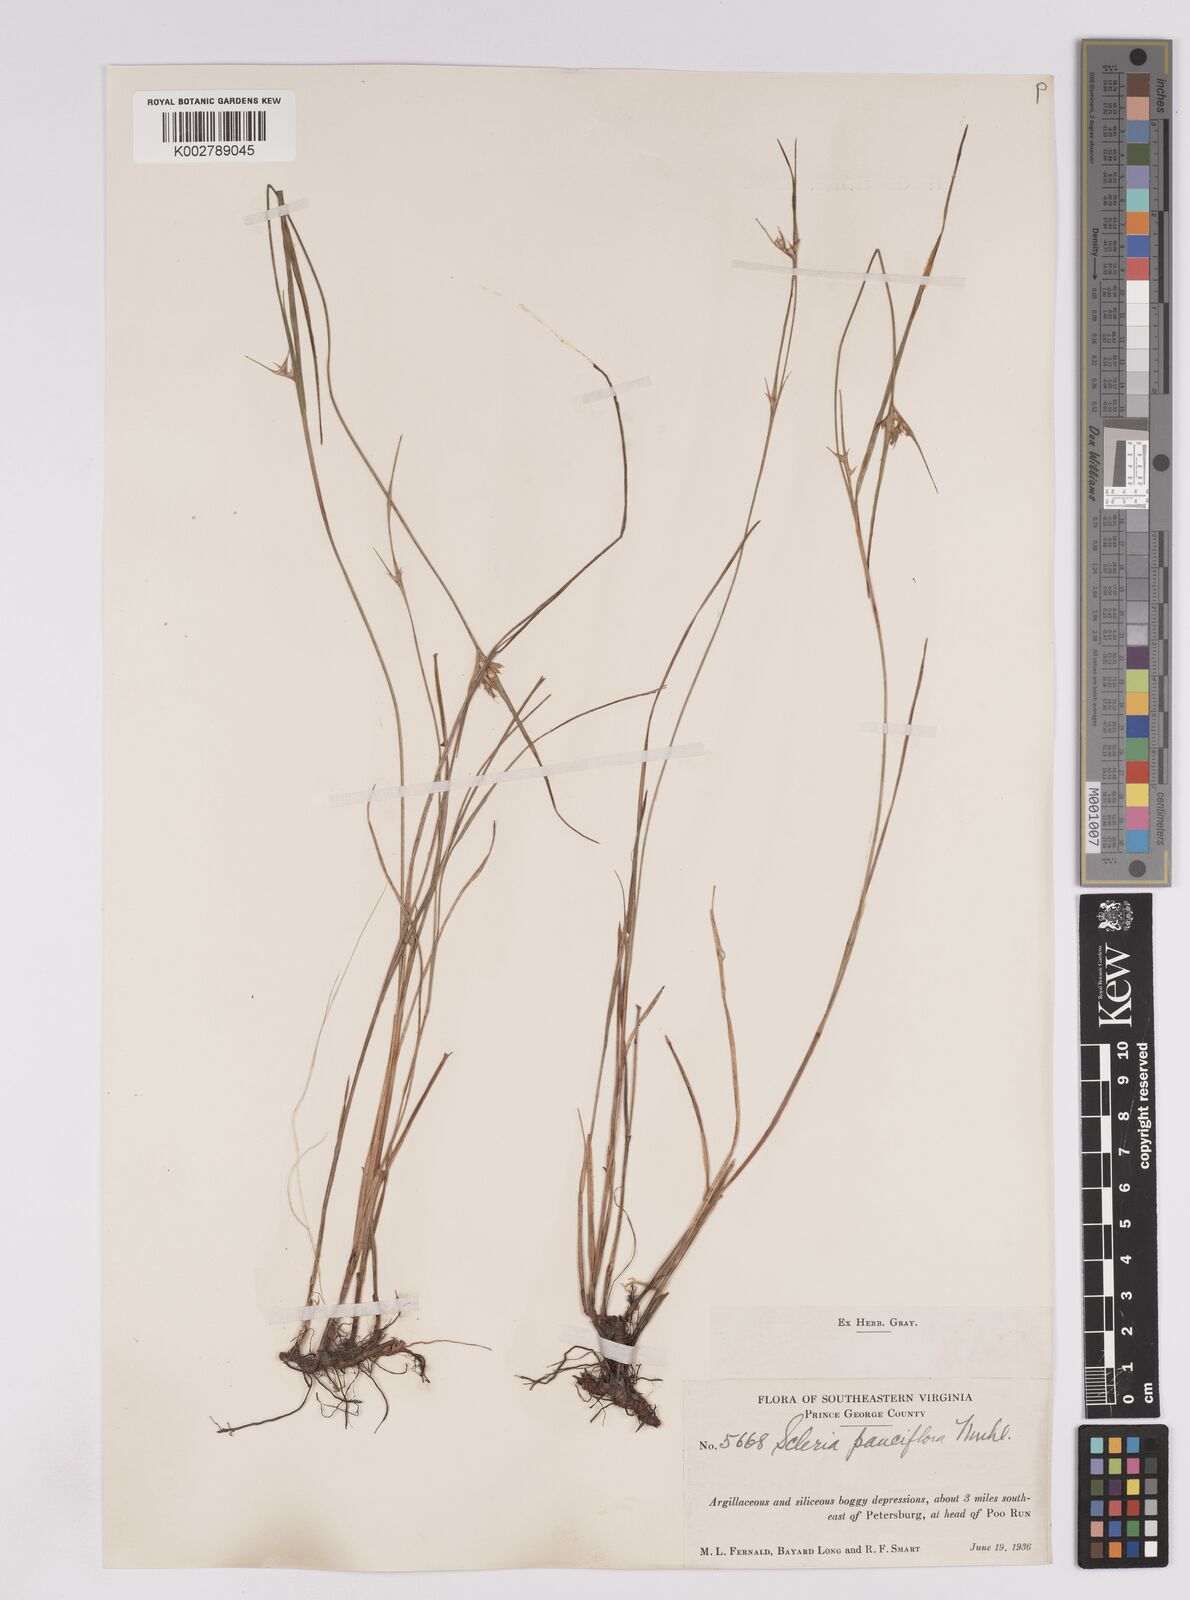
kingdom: Plantae
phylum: Tracheophyta
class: Liliopsida
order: Poales
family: Cyperaceae
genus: Scleria
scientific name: Scleria pauciflora
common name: Few-flowered nutrush
